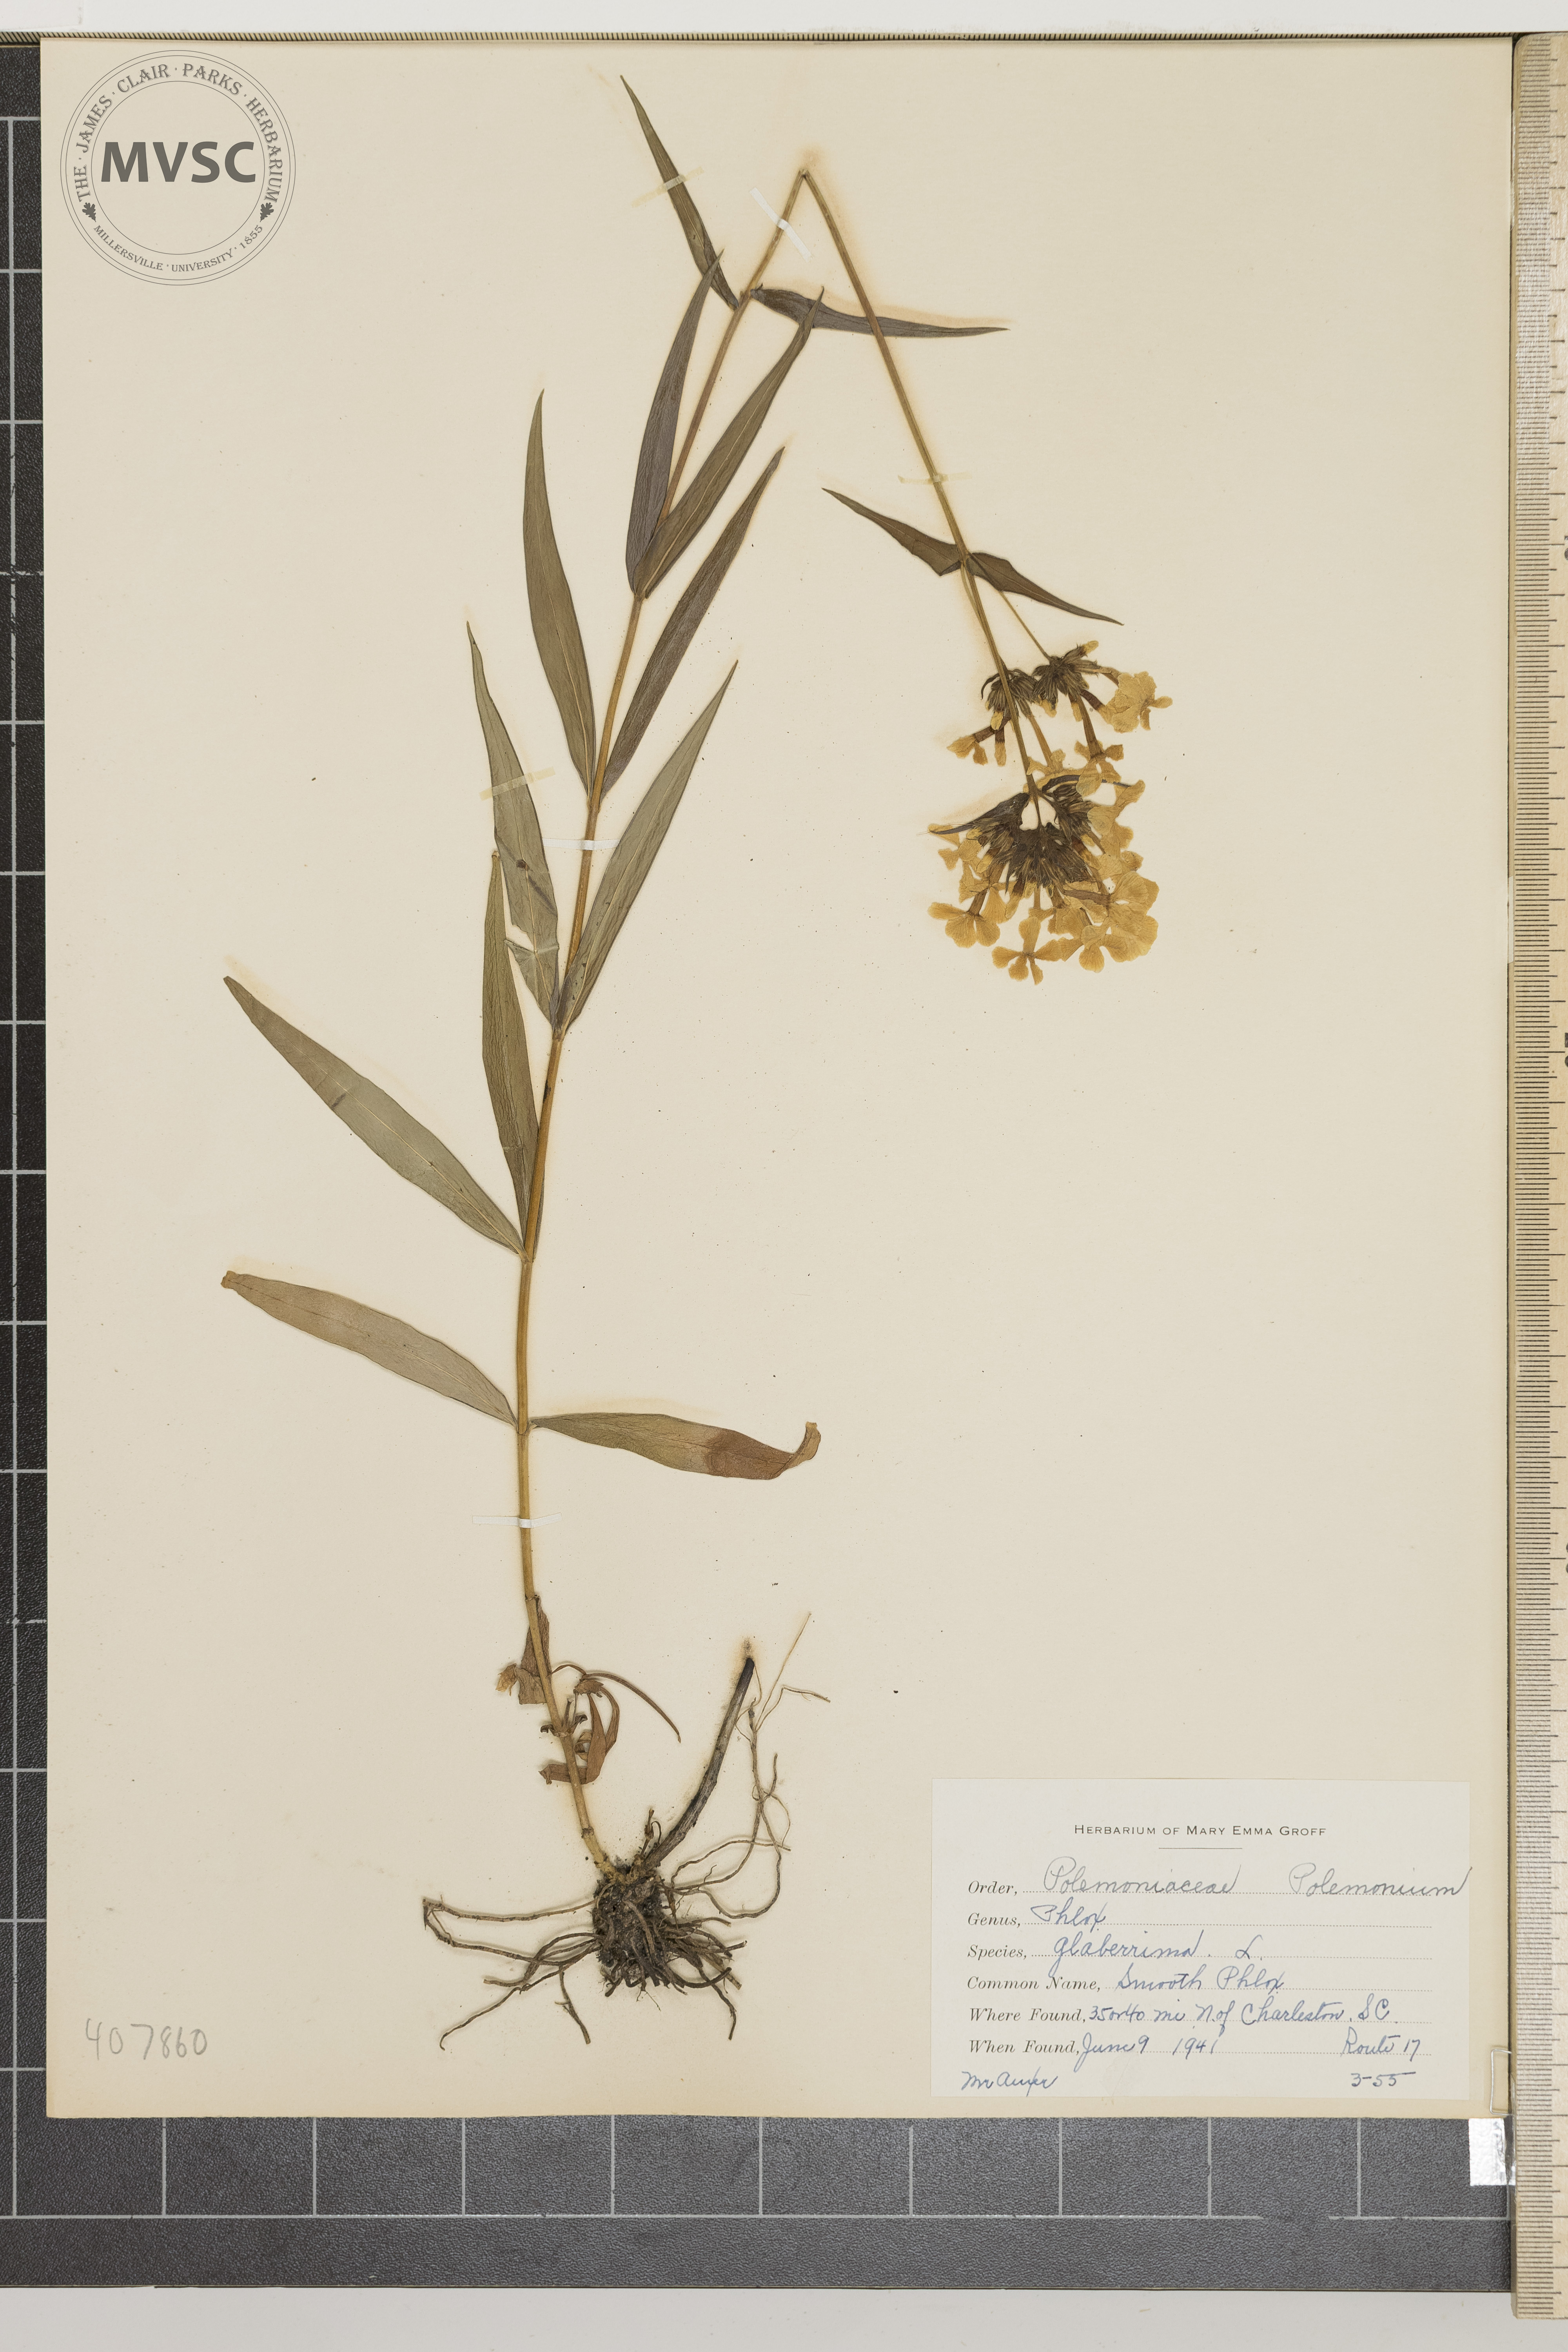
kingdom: Plantae
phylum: Tracheophyta
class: Magnoliopsida
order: Ericales
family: Polemoniaceae
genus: Phlox
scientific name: Phlox glaberrima
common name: Smooth Phlox
